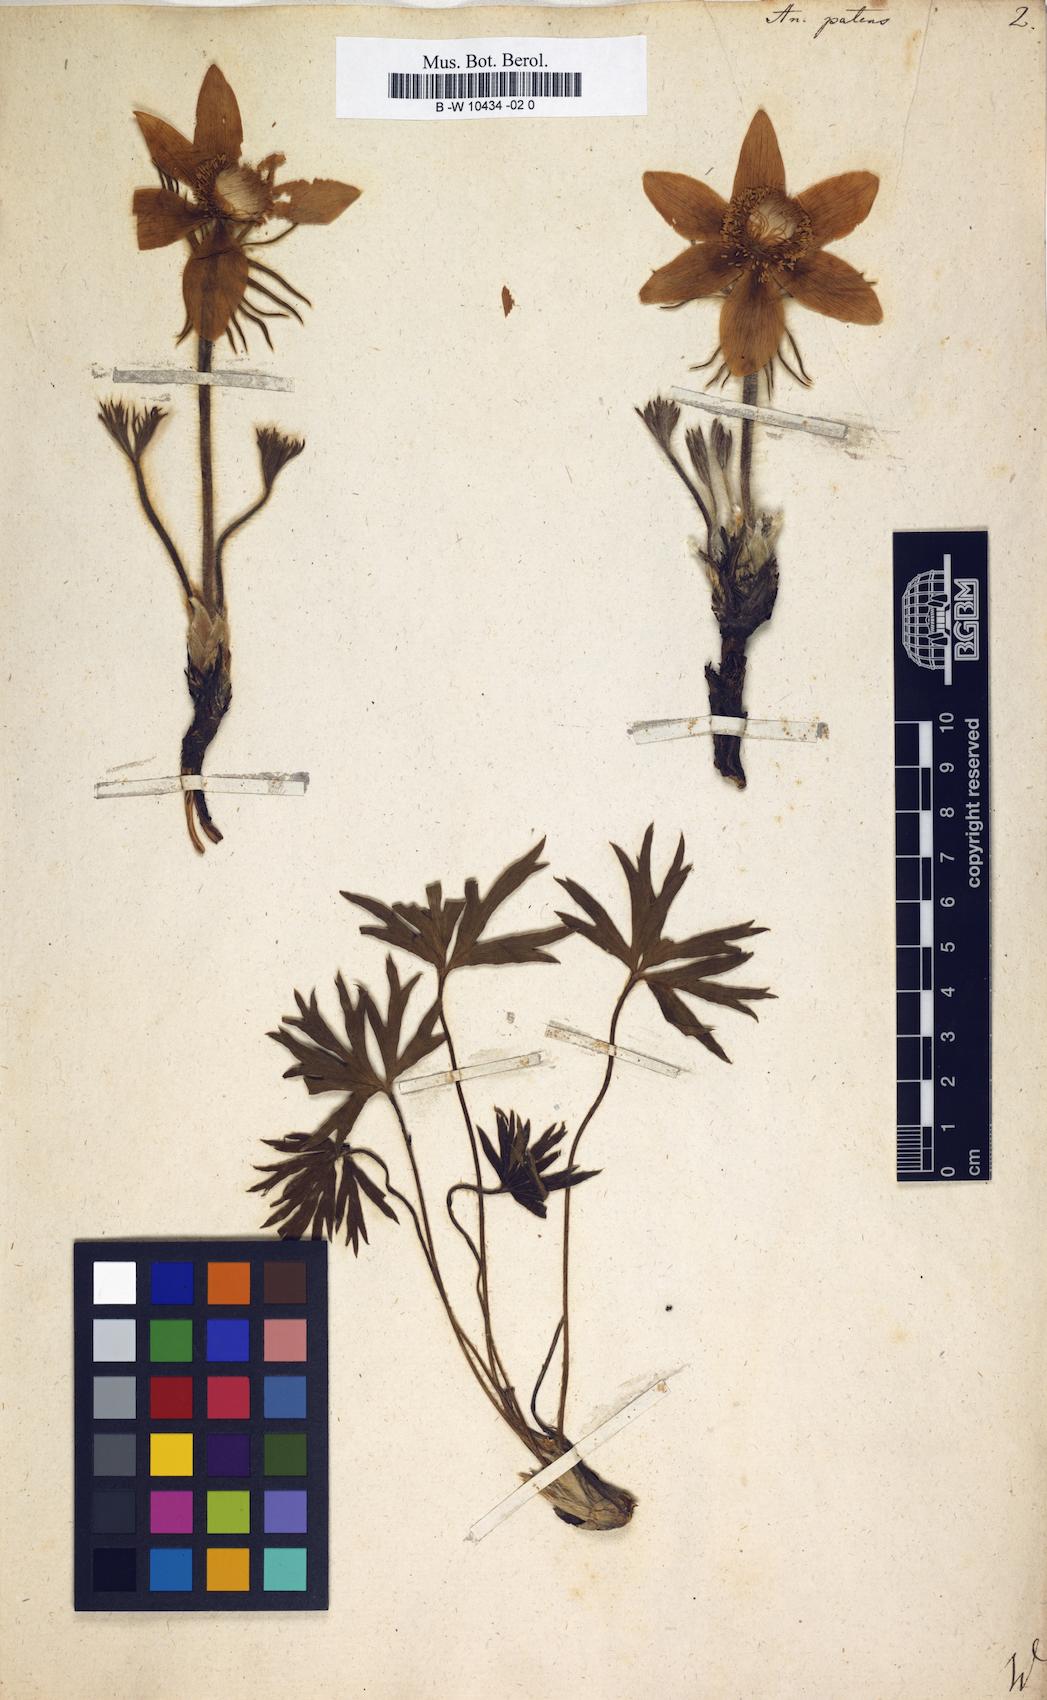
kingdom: Plantae
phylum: Tracheophyta
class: Magnoliopsida
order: Ranunculales
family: Ranunculaceae
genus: Pulsatilla
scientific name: Pulsatilla patens
